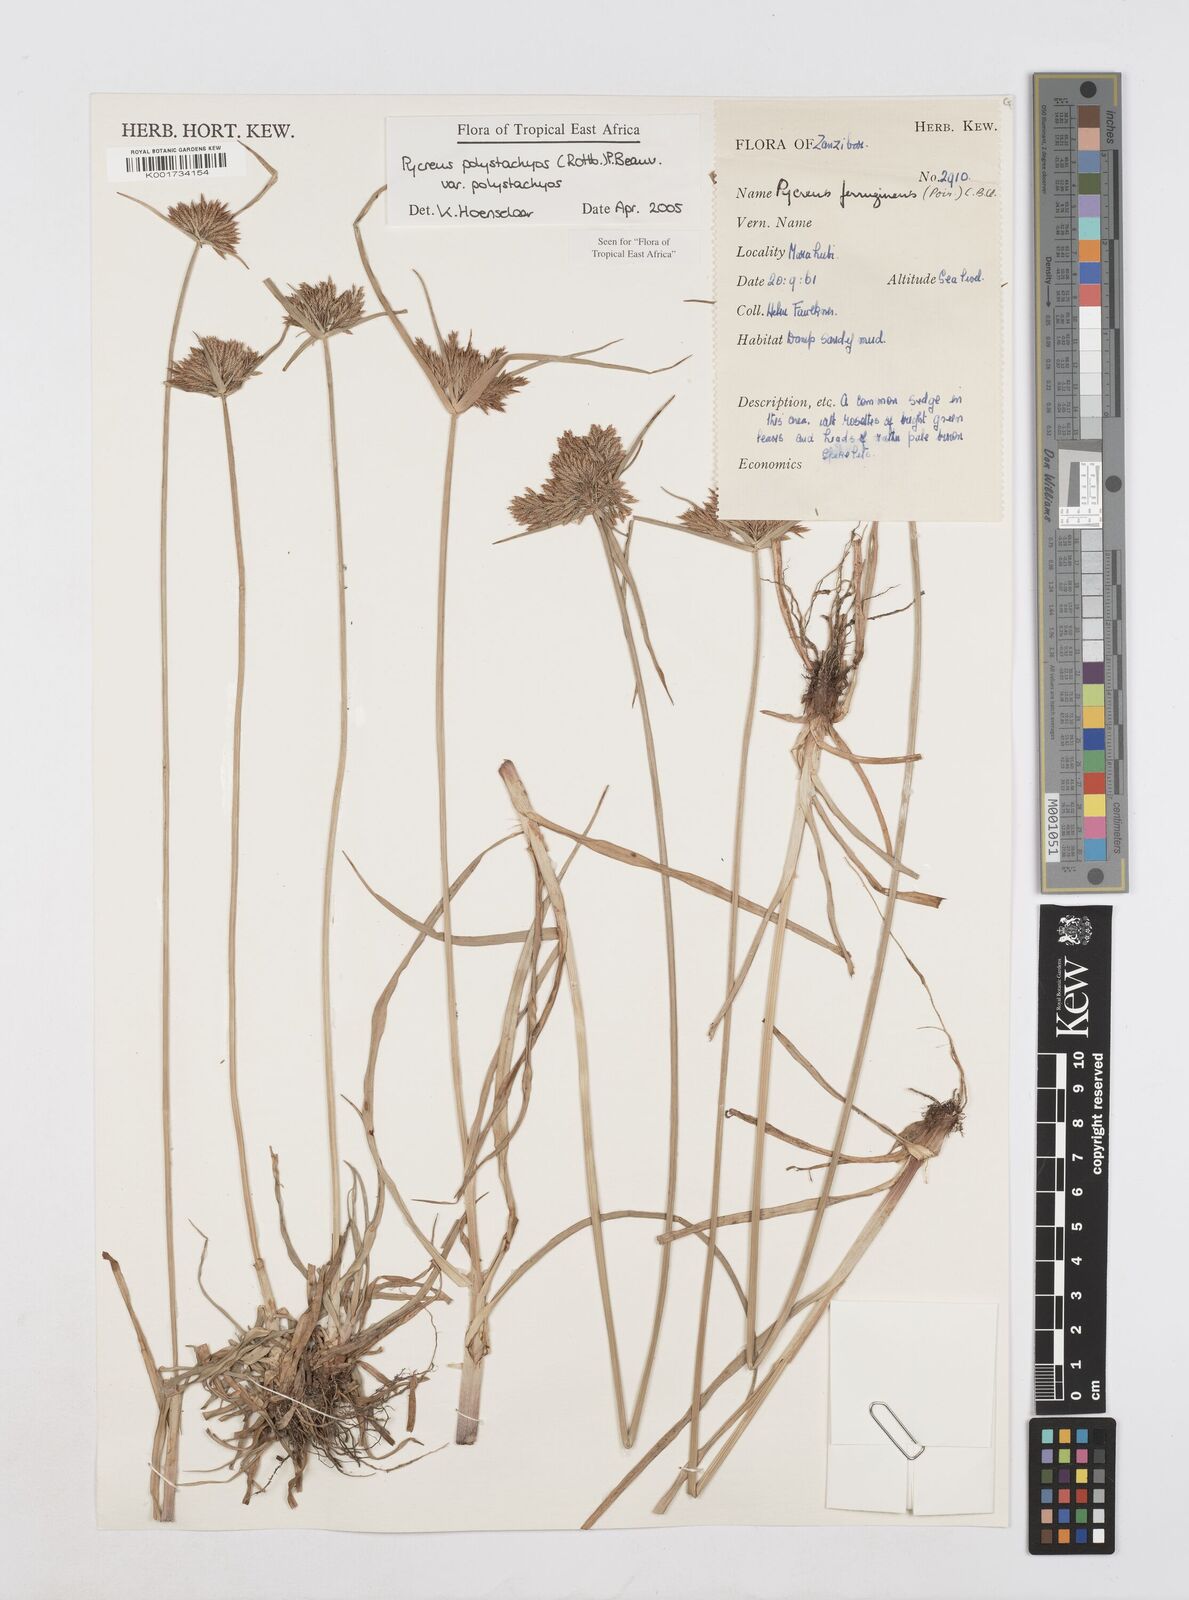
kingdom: Plantae
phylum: Tracheophyta
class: Liliopsida
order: Poales
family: Cyperaceae
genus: Cyperus
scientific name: Cyperus polystachyos
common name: Bunchy flat sedge
